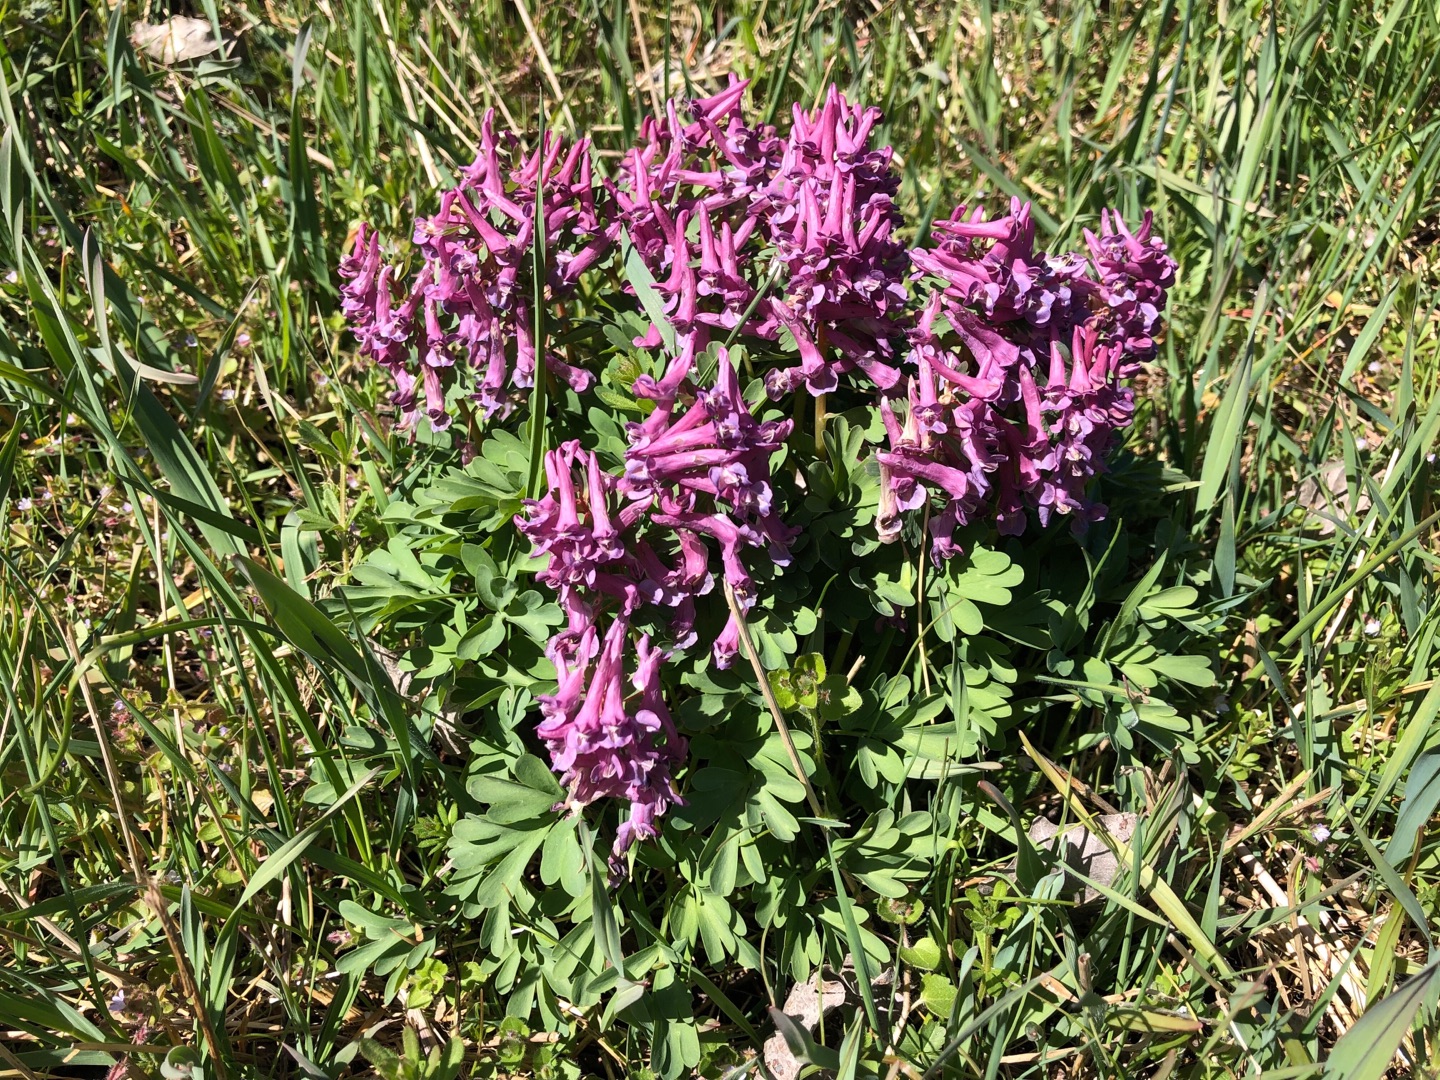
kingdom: Plantae
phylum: Tracheophyta
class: Magnoliopsida
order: Ranunculales
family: Papaveraceae
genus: Corydalis
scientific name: Corydalis solida
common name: Langstilket lærkespore
